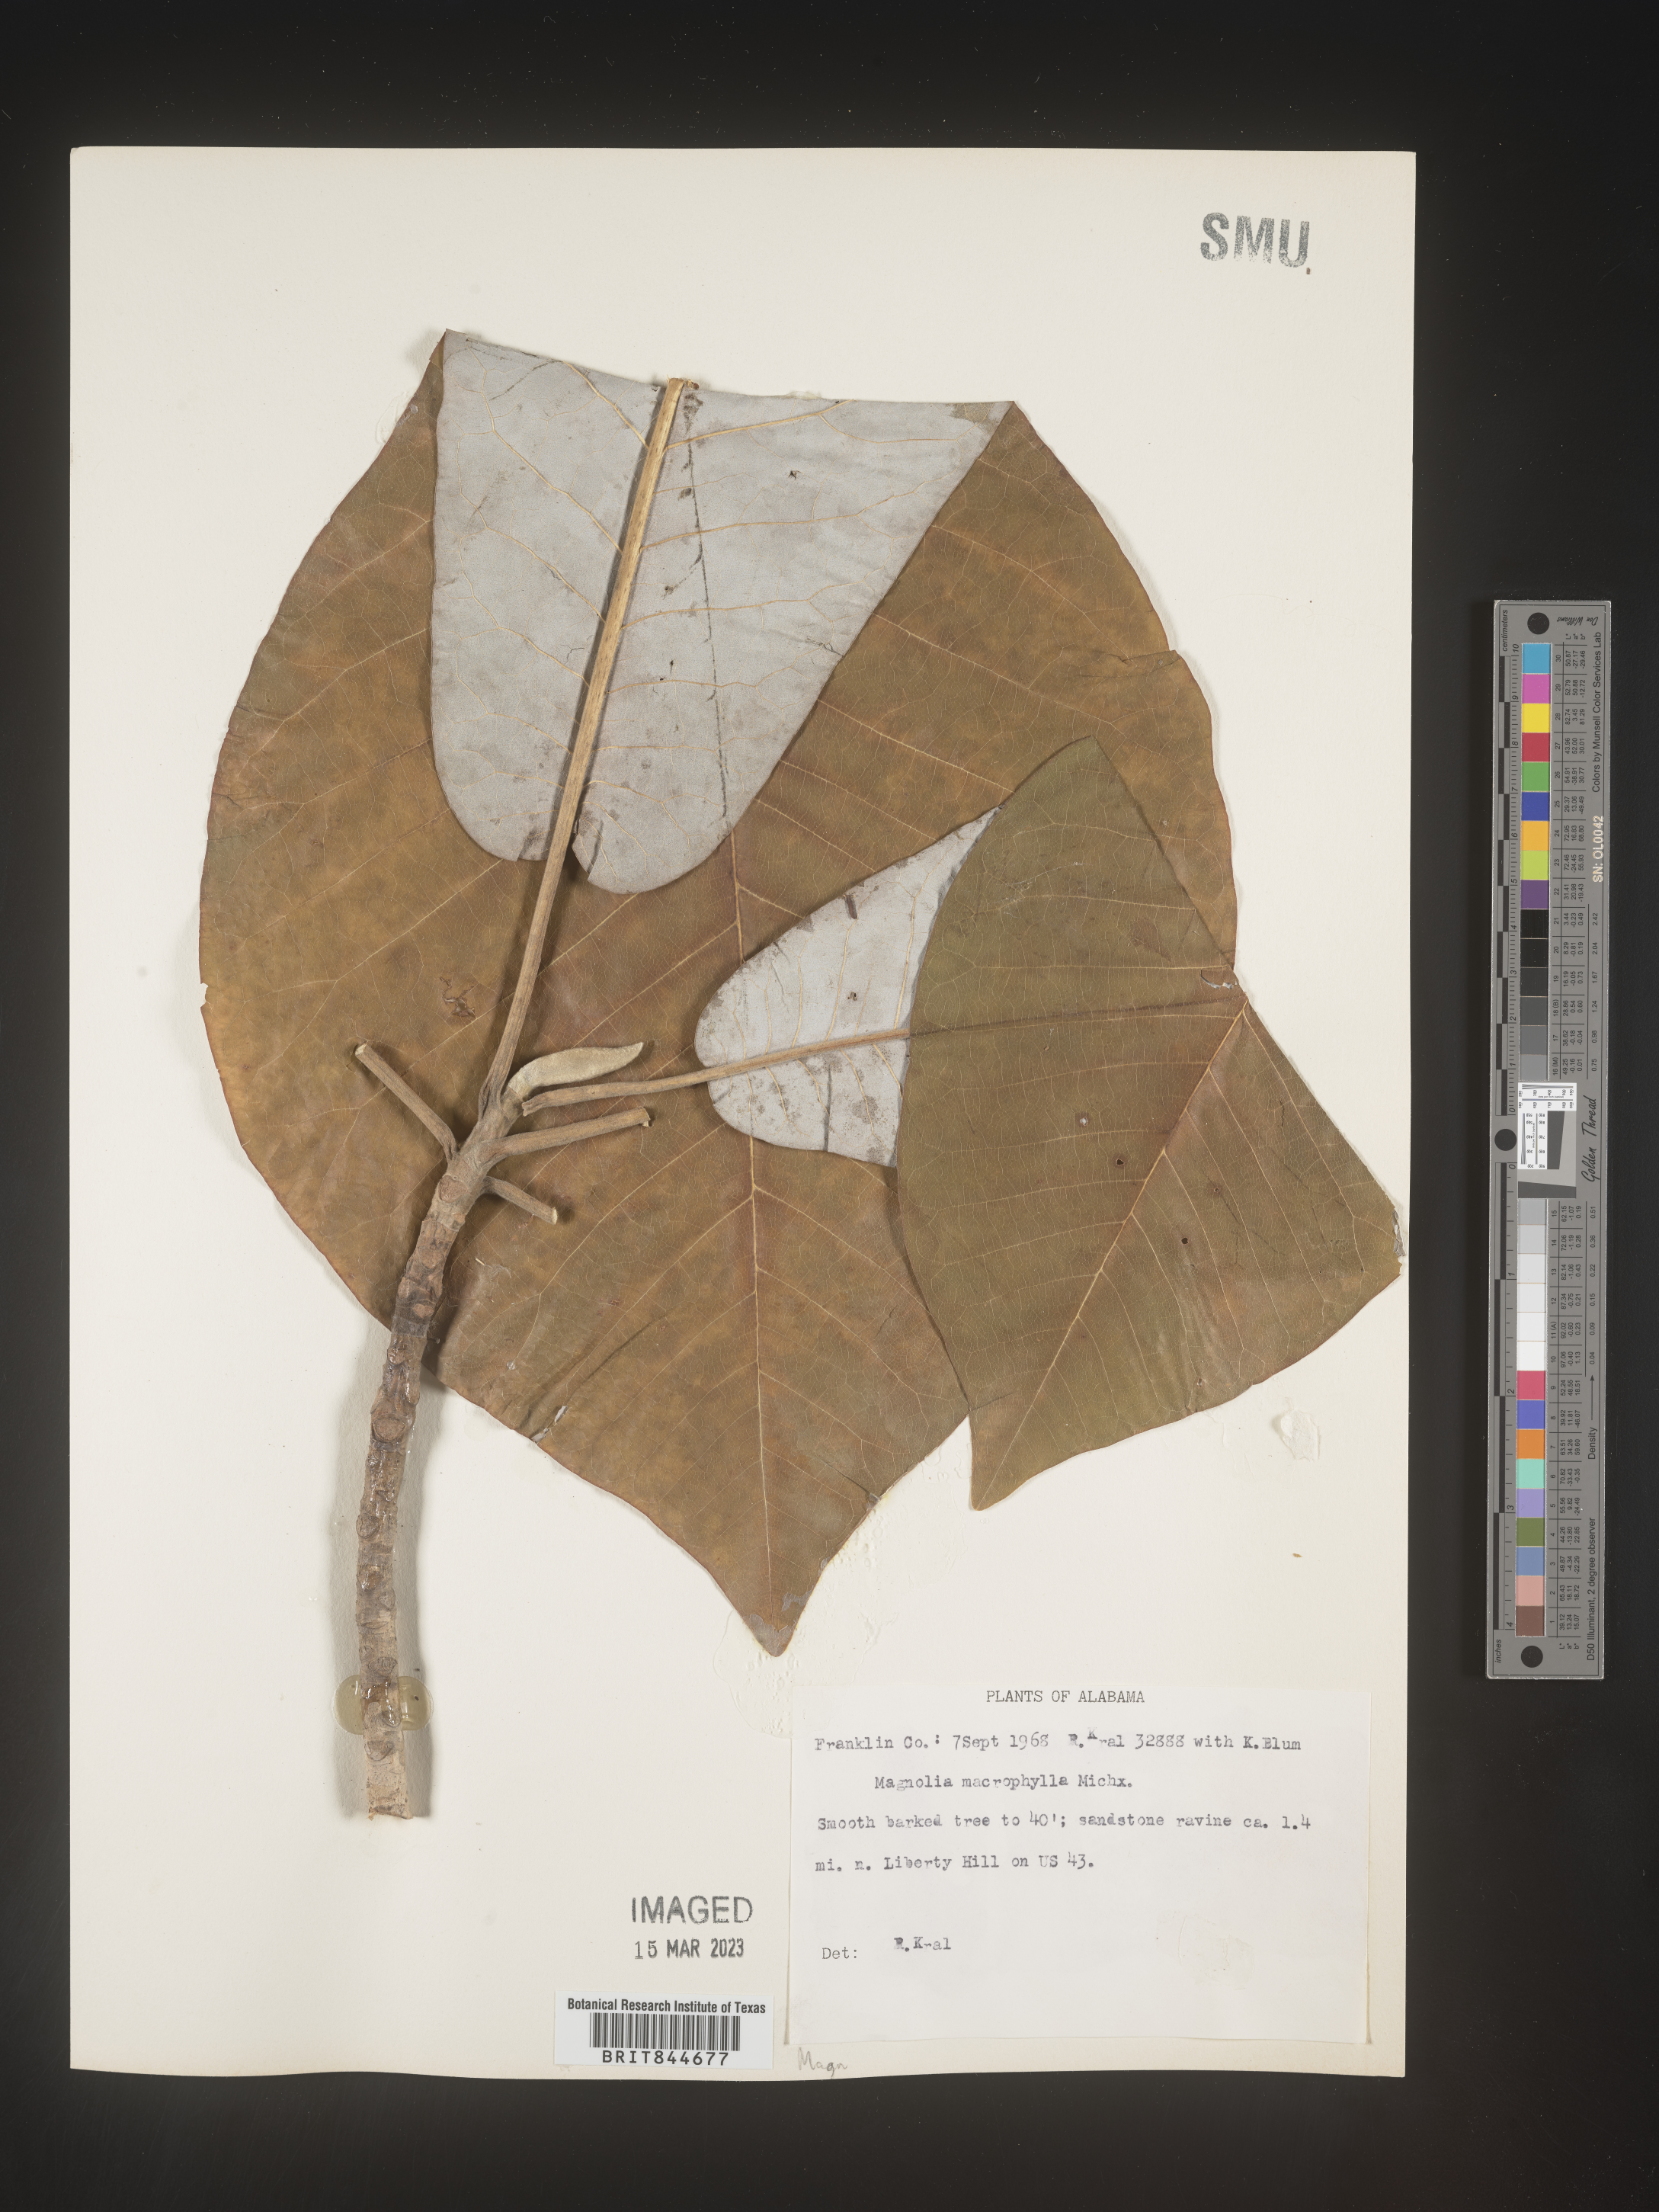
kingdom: Plantae
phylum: Tracheophyta
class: Magnoliopsida
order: Magnoliales
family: Magnoliaceae
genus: Magnolia
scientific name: Magnolia macrophylla
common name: Big-leaf magnolia
